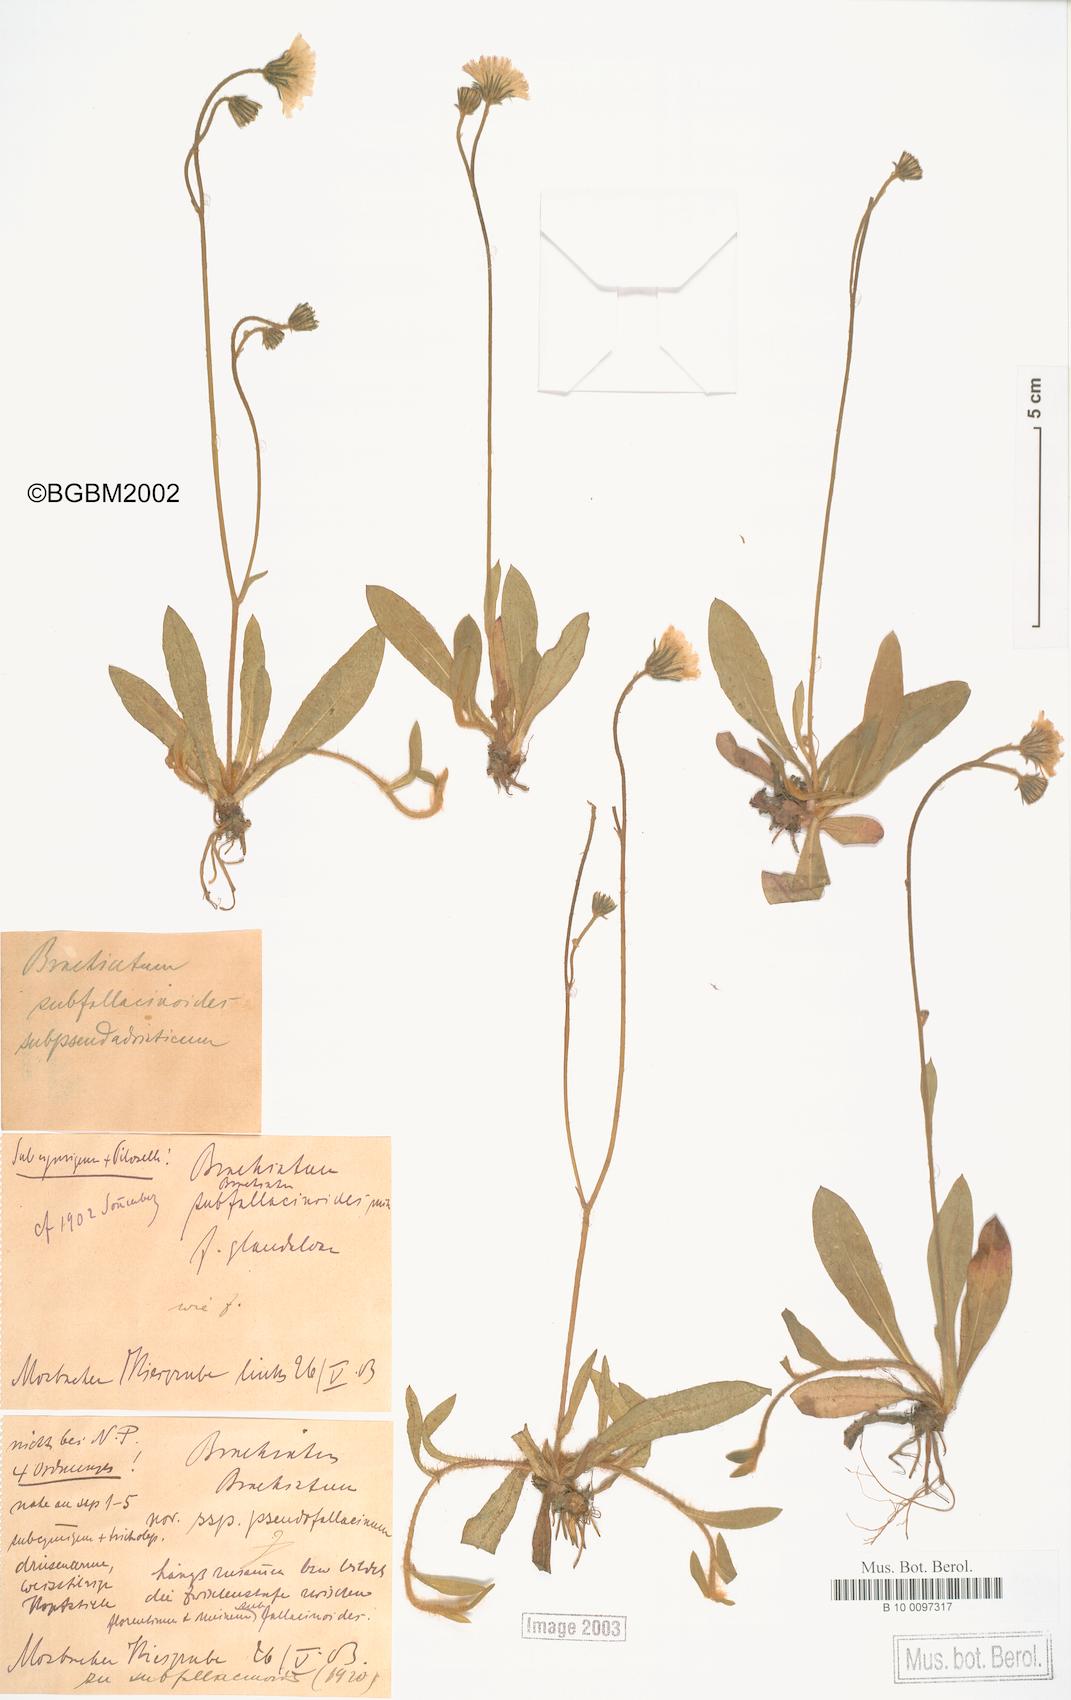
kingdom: Plantae
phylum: Tracheophyta
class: Magnoliopsida
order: Asterales
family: Asteraceae
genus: Pilosella
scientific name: Pilosella acutifolia
